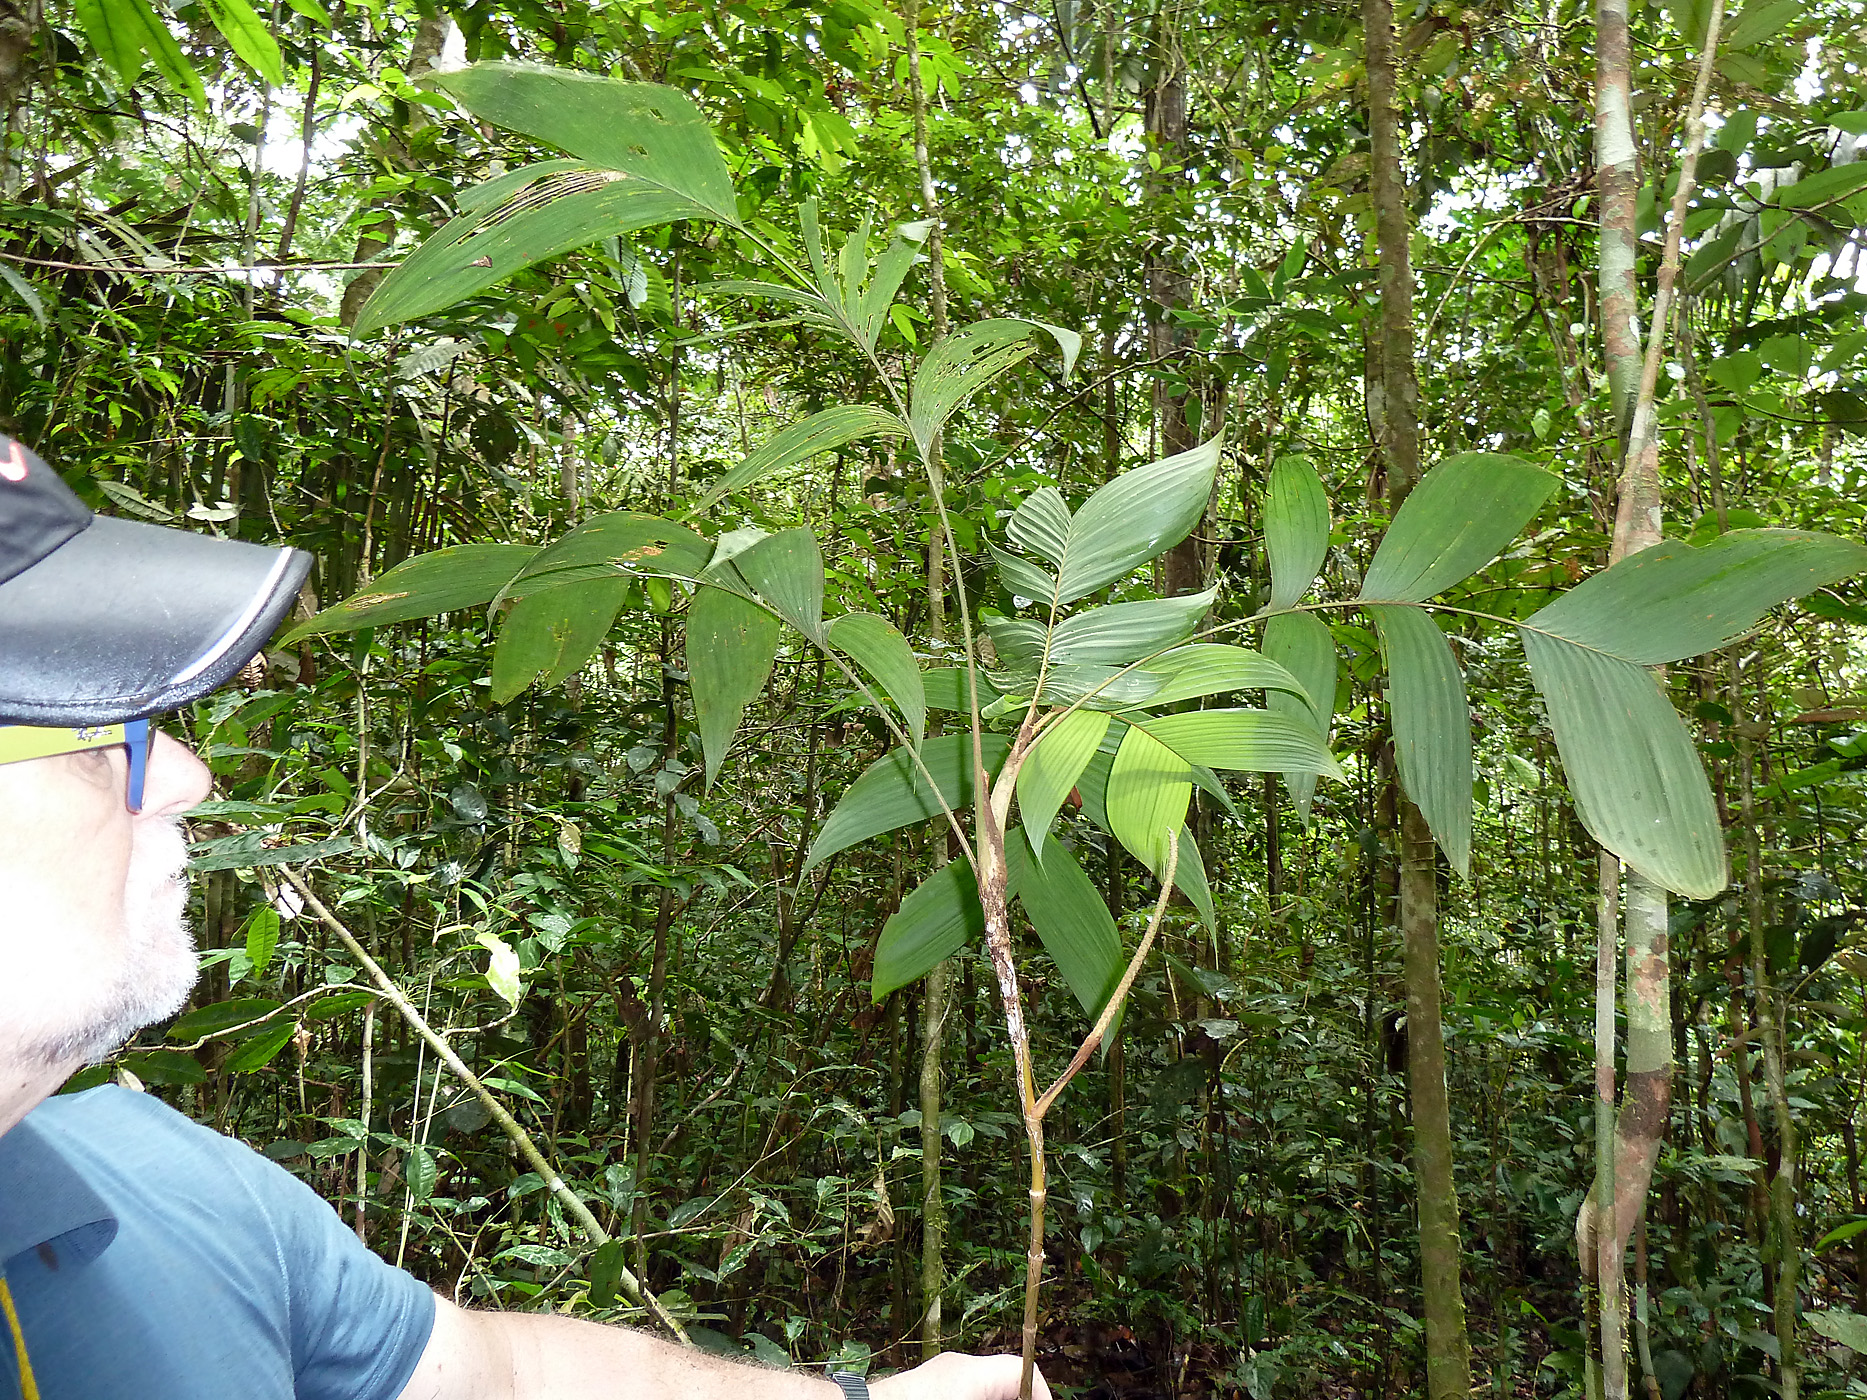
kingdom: Plantae
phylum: Tracheophyta
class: Liliopsida
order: Arecales
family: Arecaceae
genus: Geonoma
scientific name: Geonoma stricta
